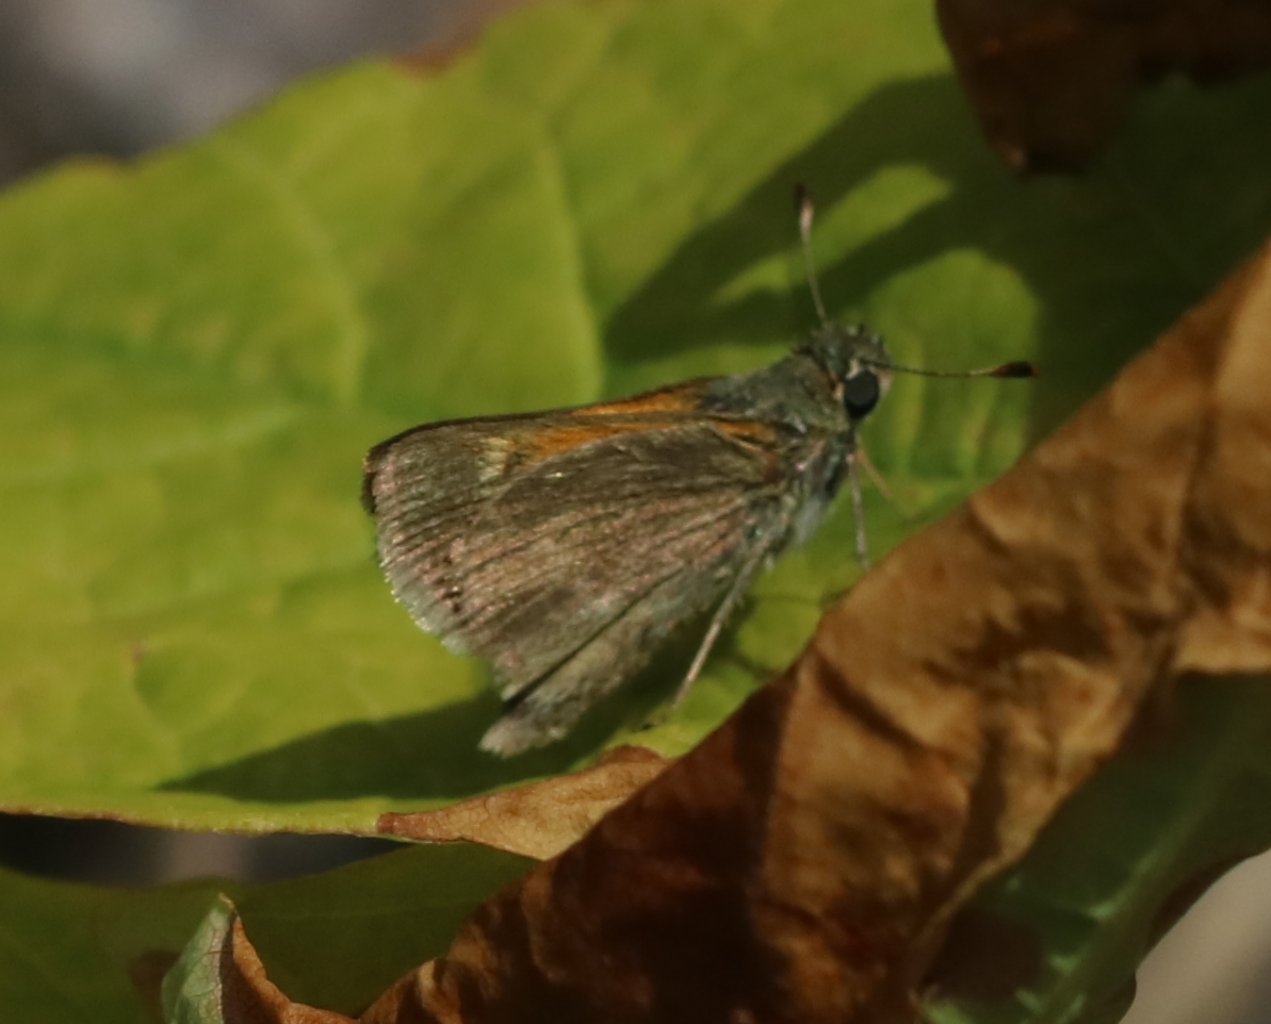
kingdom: Animalia
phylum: Arthropoda
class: Insecta
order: Lepidoptera
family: Hesperiidae
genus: Polites
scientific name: Polites themistocles
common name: Tawny-edged Skipper
